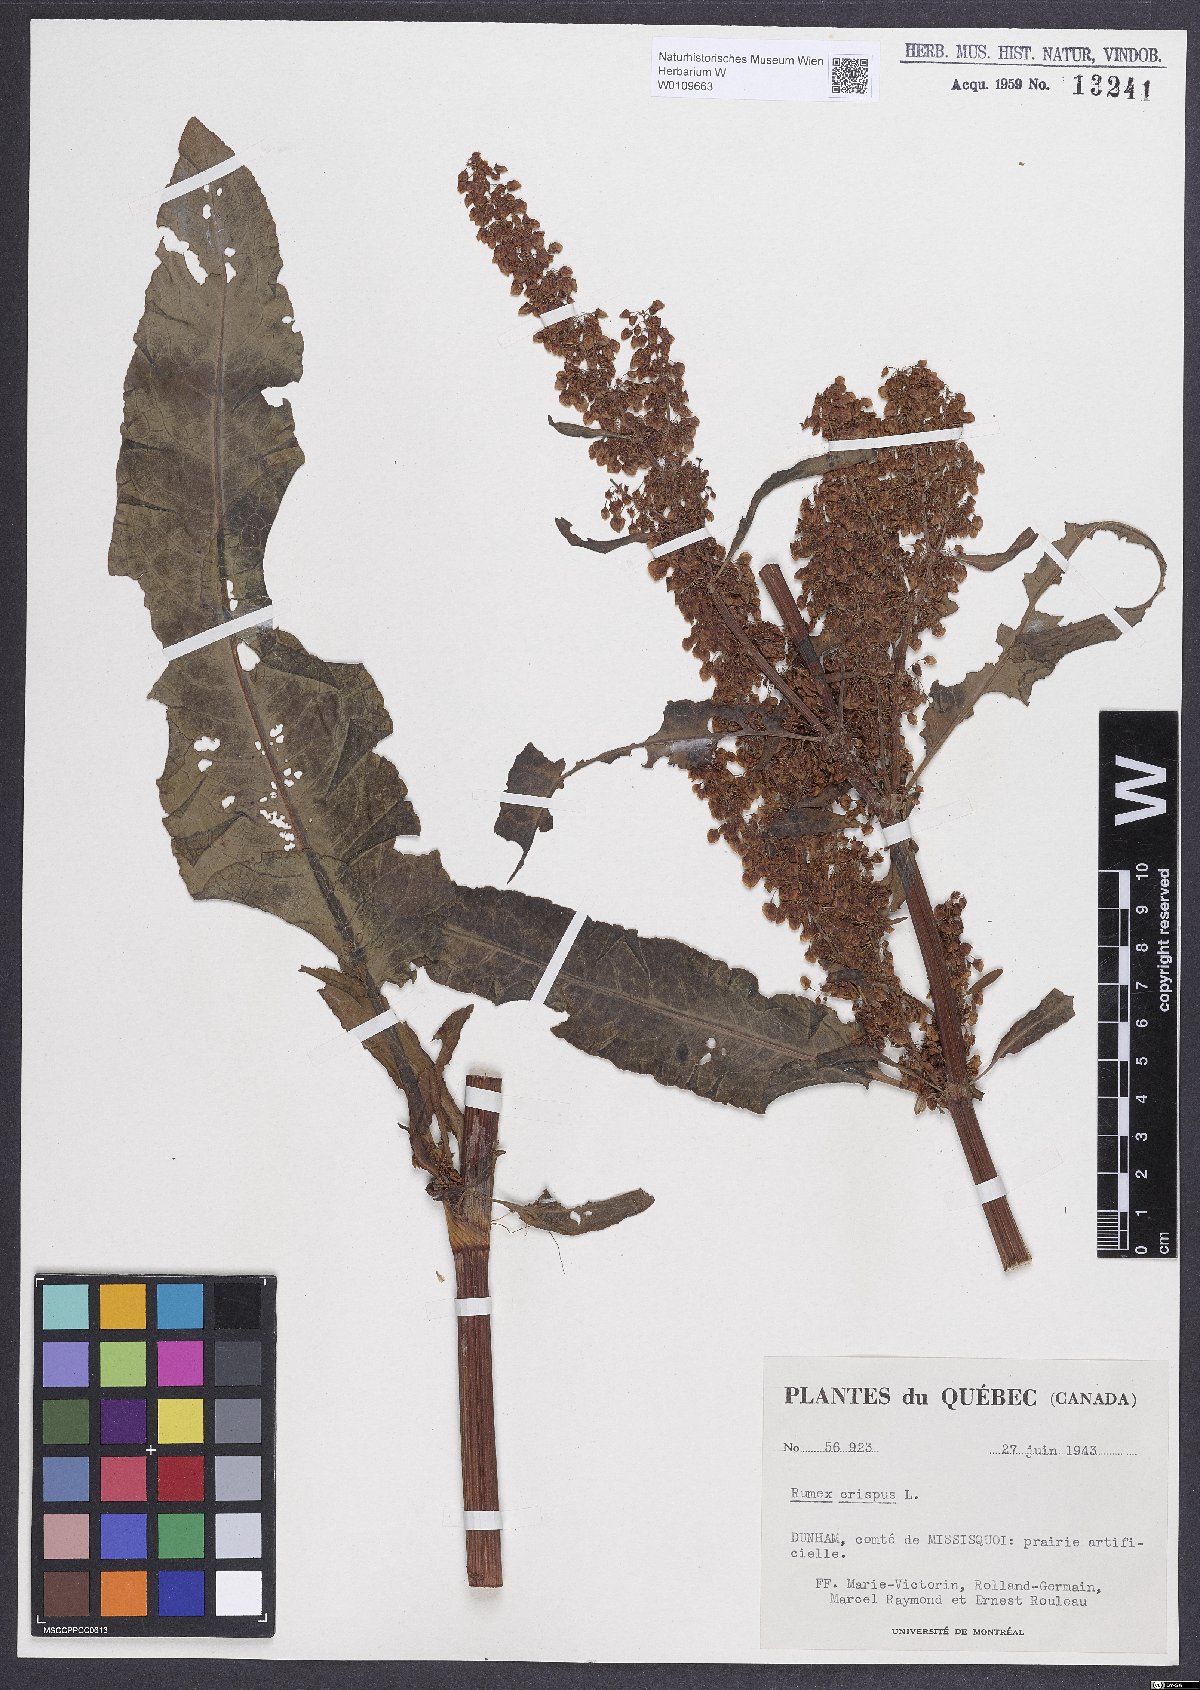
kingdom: Plantae
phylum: Tracheophyta
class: Magnoliopsida
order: Caryophyllales
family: Polygonaceae
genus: Rumex
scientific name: Rumex crispus
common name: Curled dock
